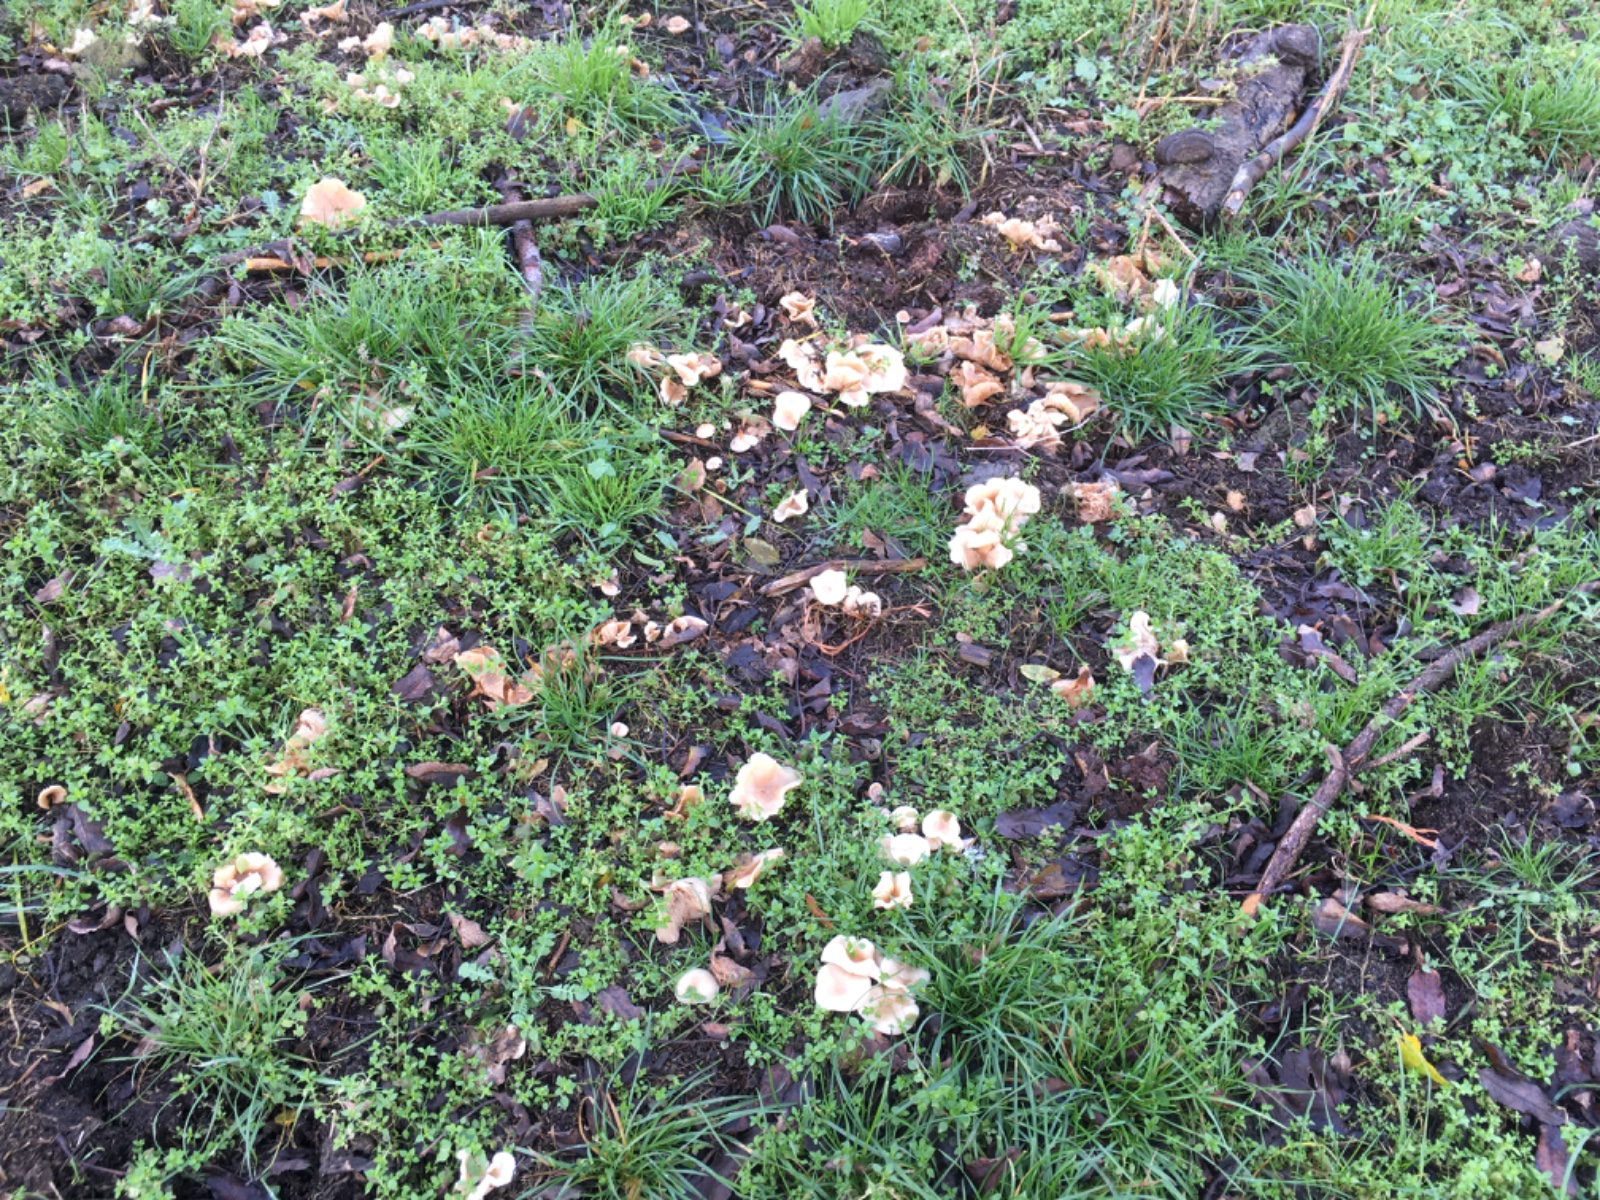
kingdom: Fungi
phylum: Basidiomycota
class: Agaricomycetes
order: Agaricales
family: Tricholomataceae
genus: Clitocybe
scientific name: Clitocybe
